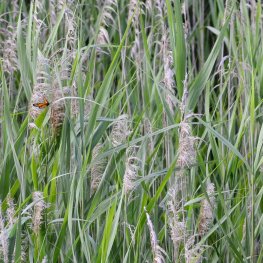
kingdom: Animalia
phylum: Arthropoda
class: Insecta
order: Lepidoptera
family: Nymphalidae
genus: Limenitis
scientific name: Limenitis archippus
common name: Viceroy
